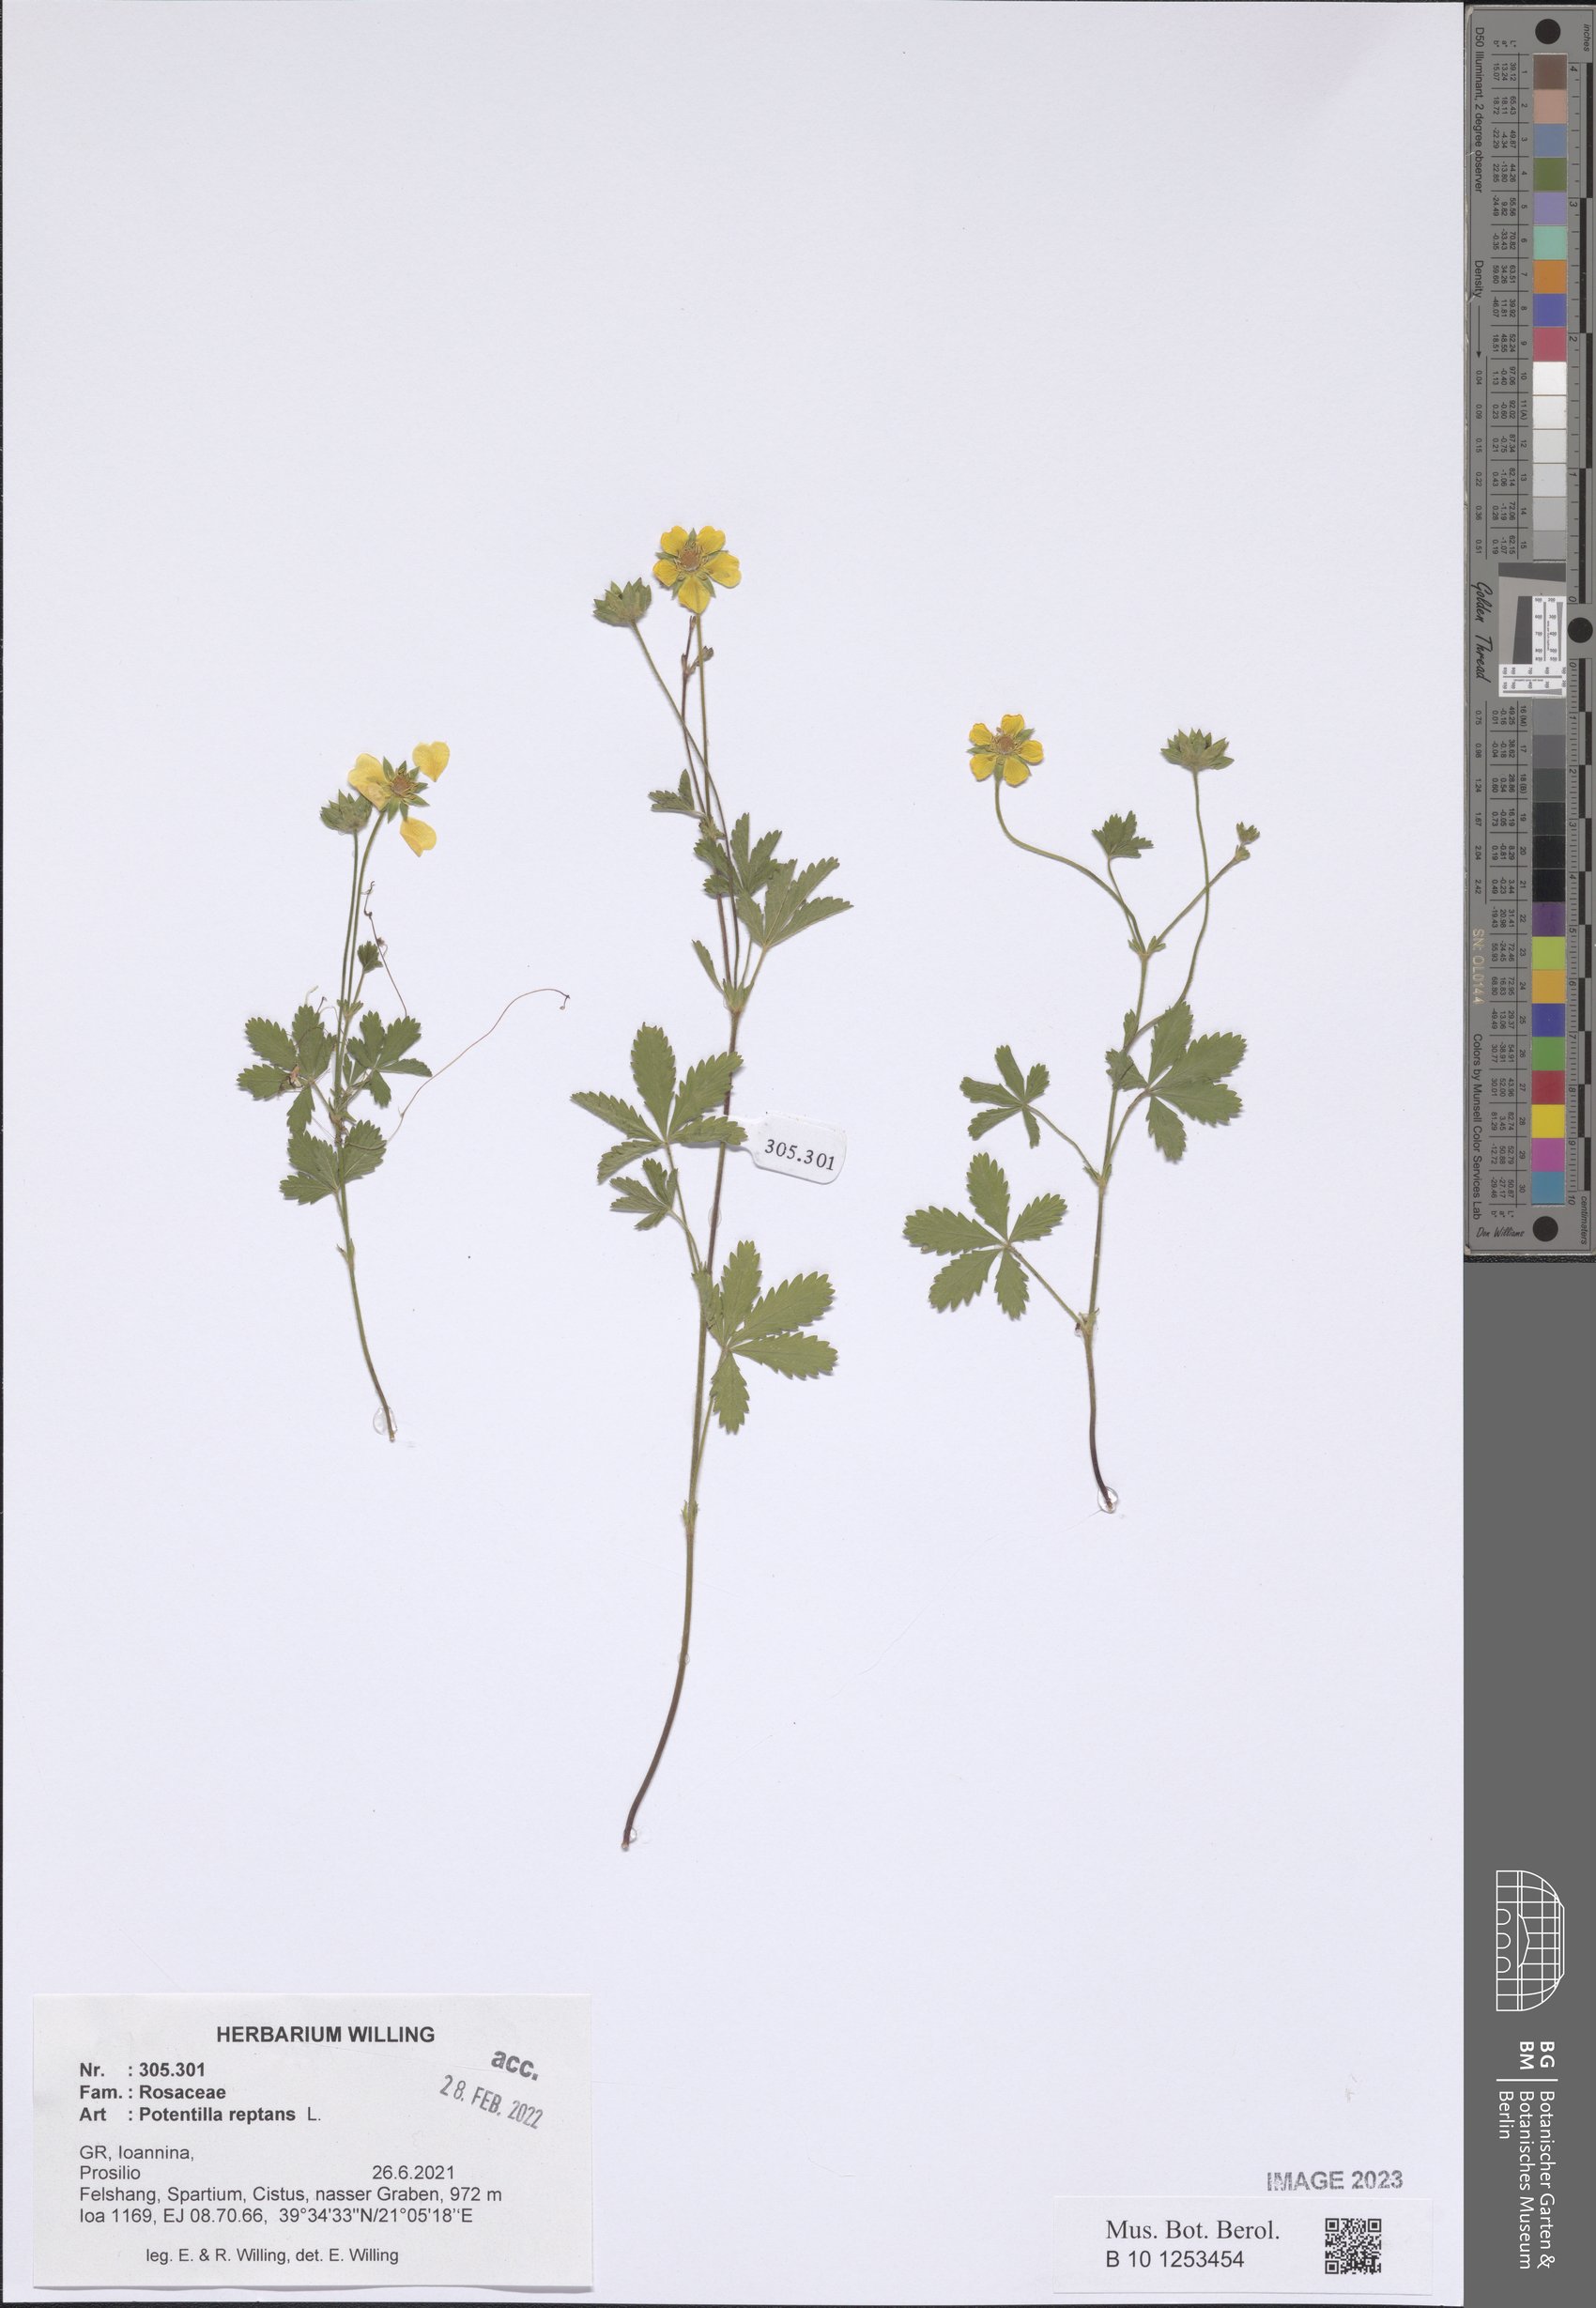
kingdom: Plantae
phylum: Tracheophyta
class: Magnoliopsida
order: Rosales
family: Rosaceae
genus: Potentilla
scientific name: Potentilla reptans
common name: Creeping cinquefoil
